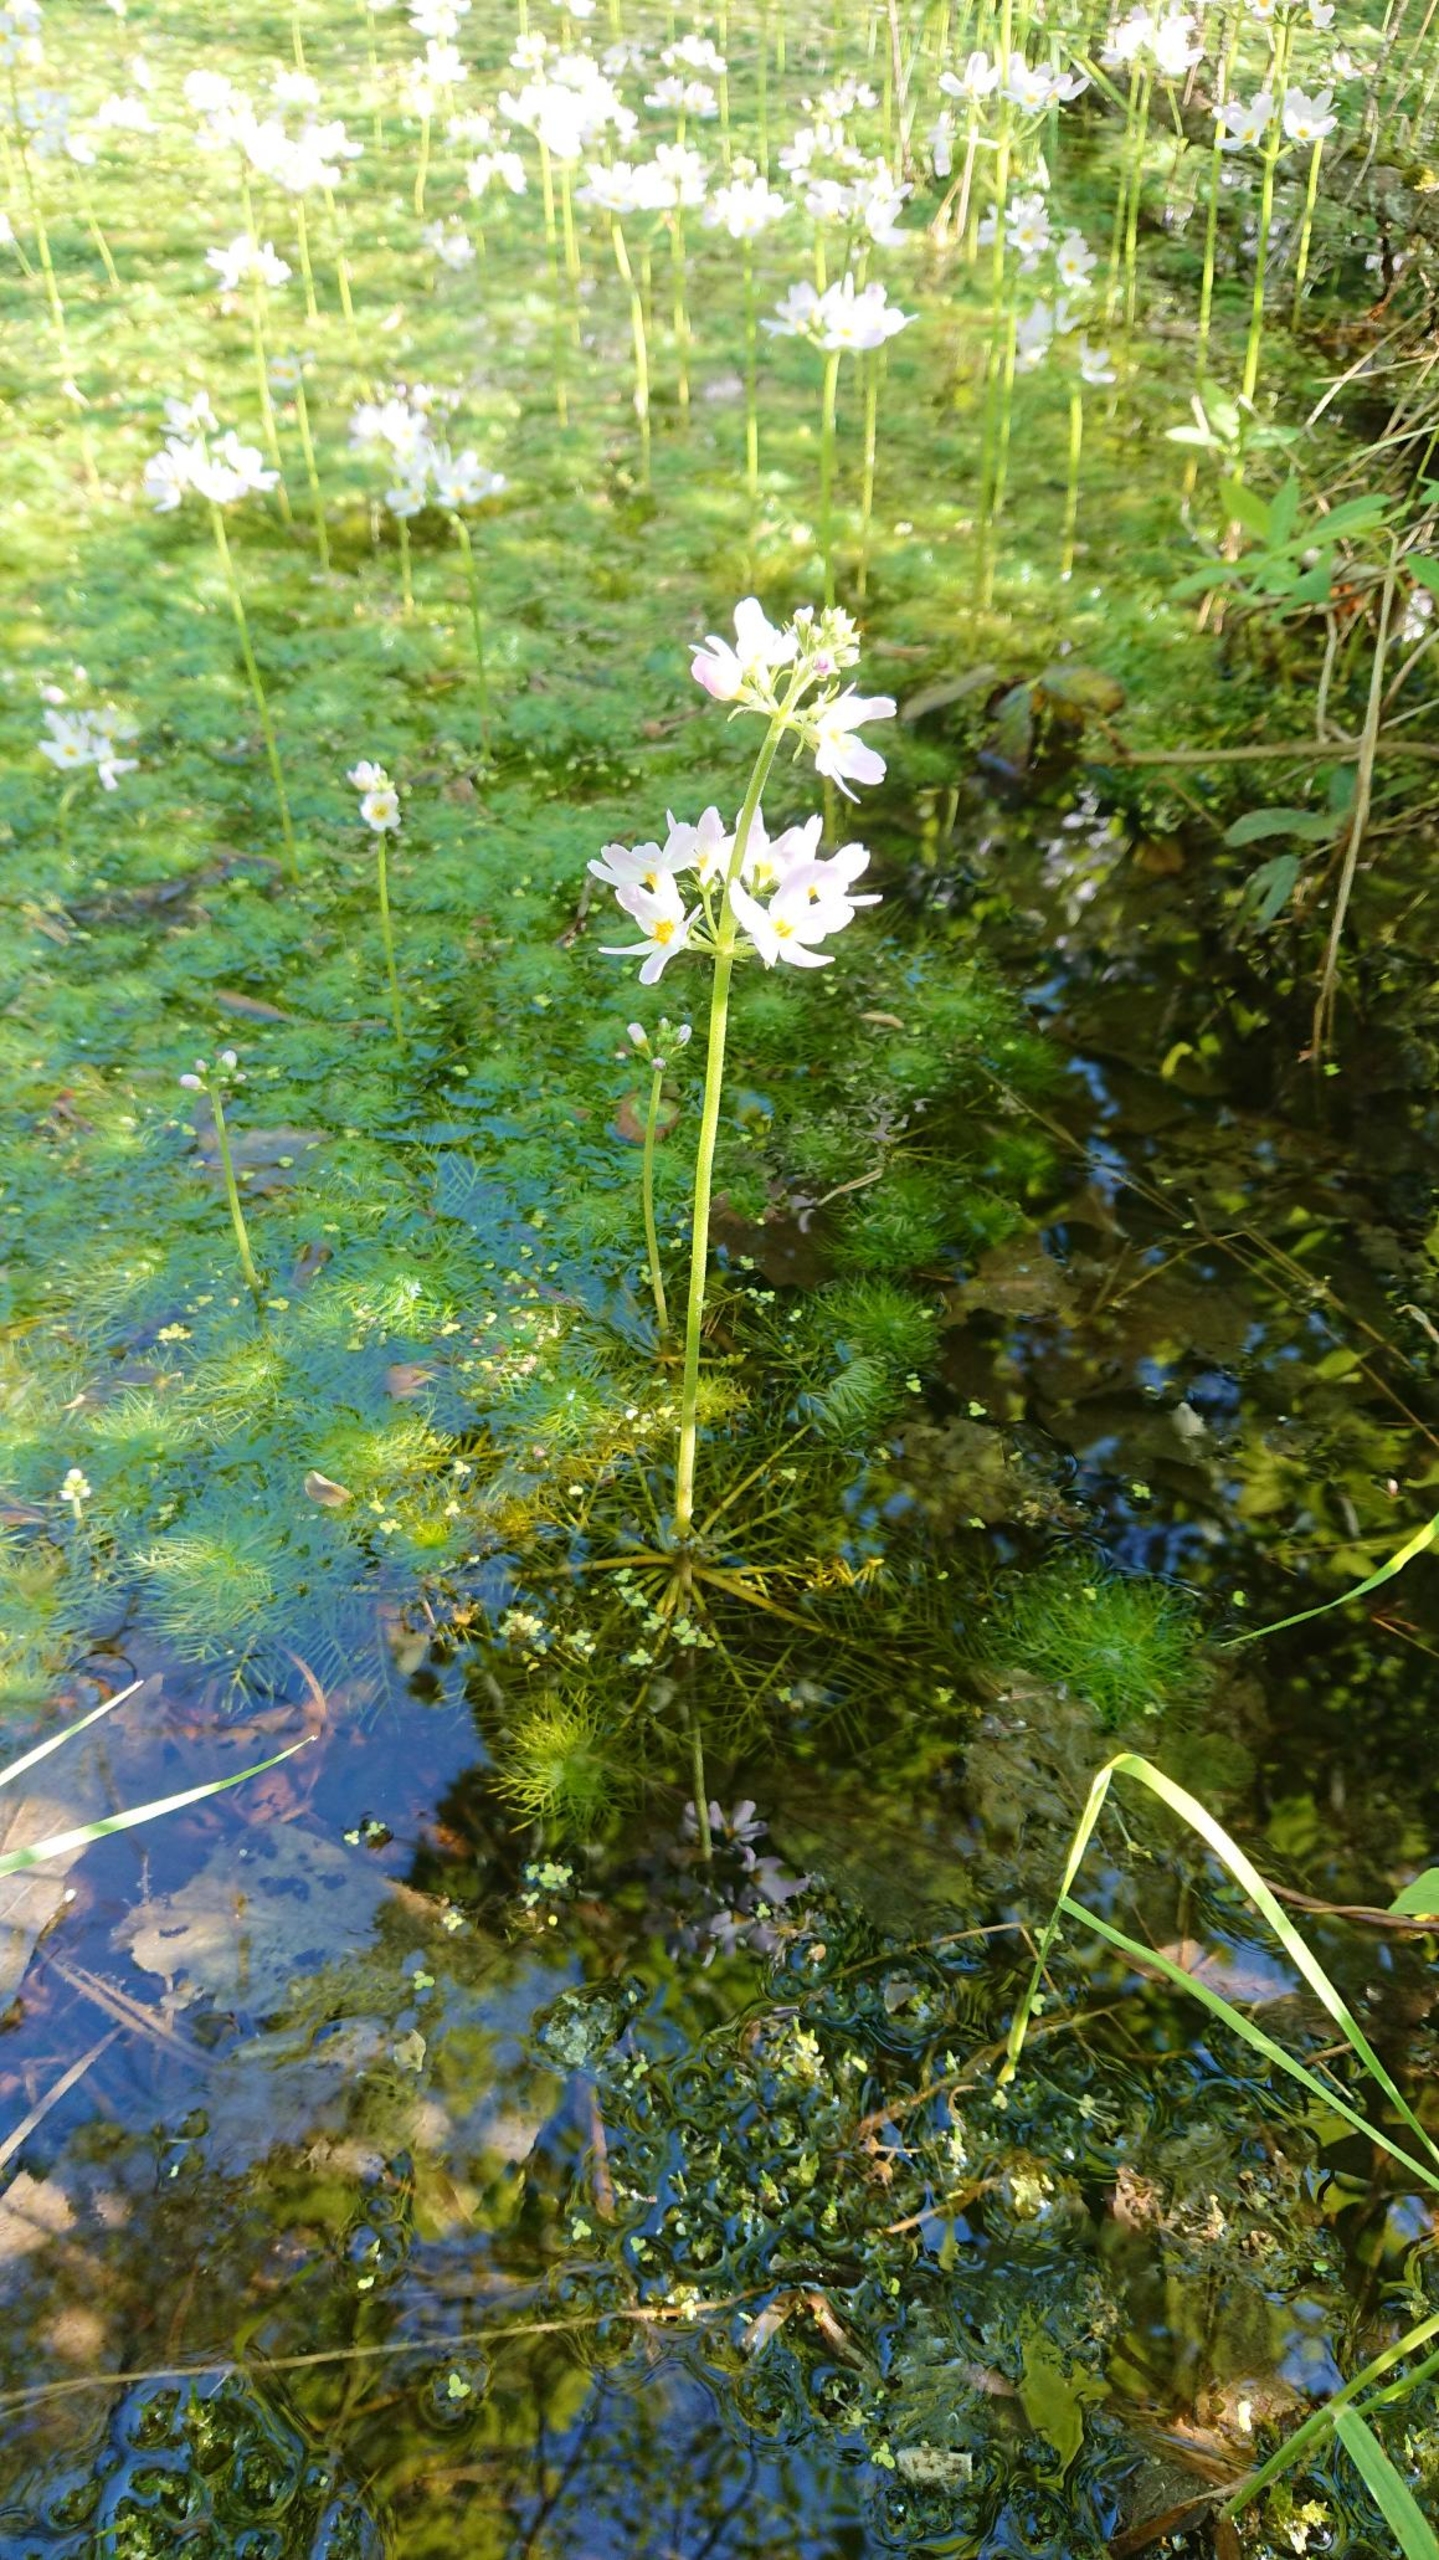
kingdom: Plantae
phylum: Tracheophyta
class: Magnoliopsida
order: Ericales
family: Primulaceae
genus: Hottonia
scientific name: Hottonia palustris
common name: Vandrøllike
